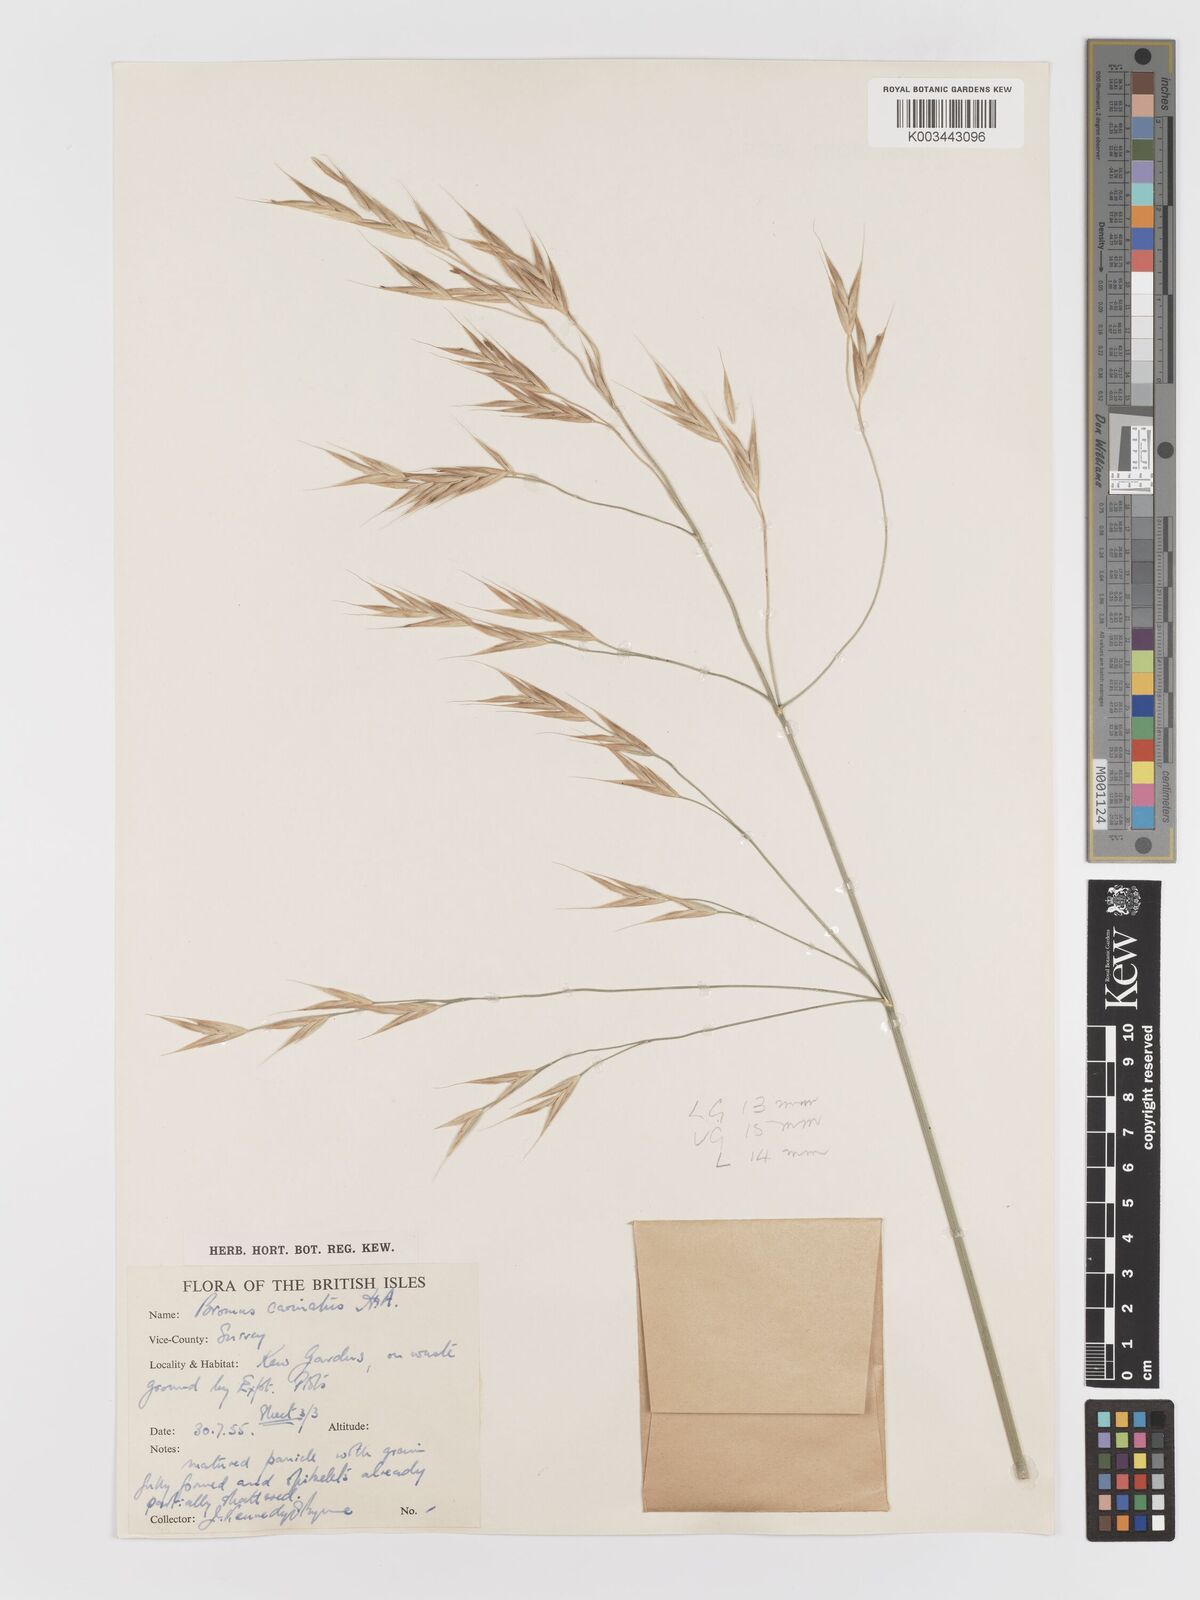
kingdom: Plantae
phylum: Tracheophyta
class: Liliopsida
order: Poales
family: Poaceae
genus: Bromus
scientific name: Bromus carinatus
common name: Mountain brome
